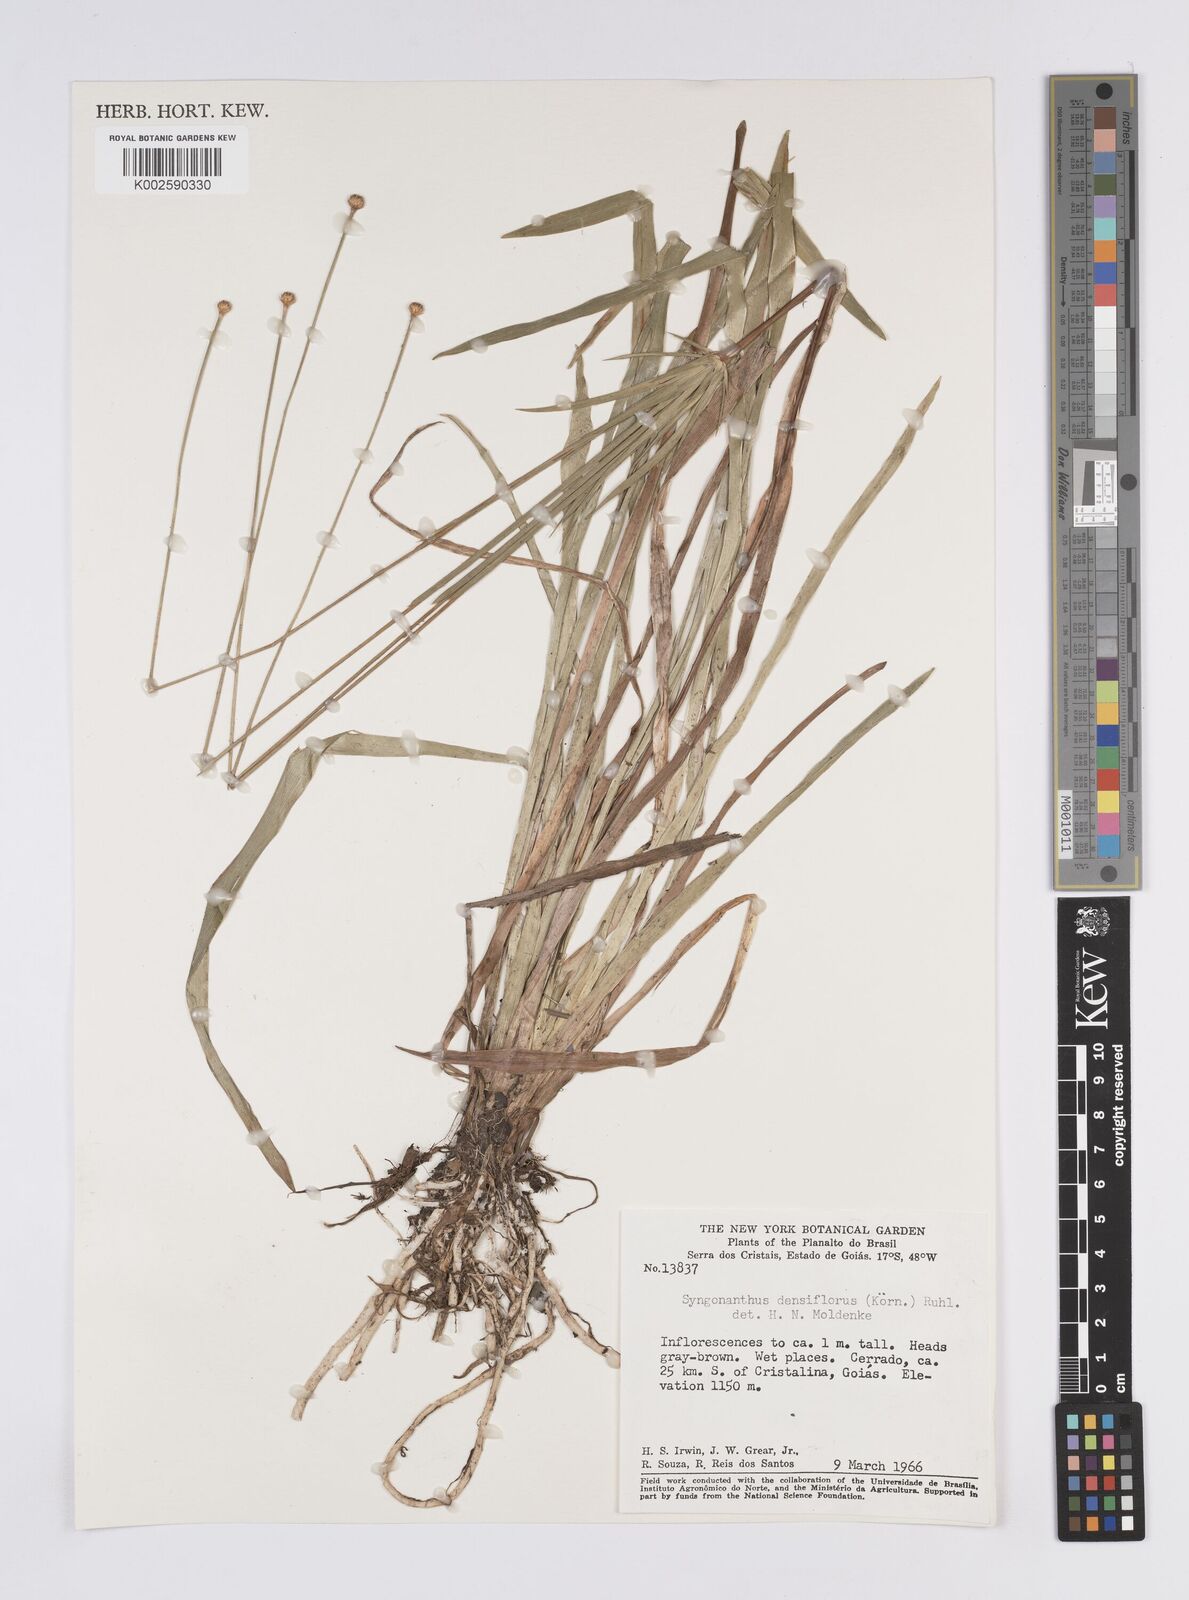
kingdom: Plantae
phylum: Tracheophyta
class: Liliopsida
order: Poales
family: Eriocaulaceae
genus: Syngonanthus
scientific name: Syngonanthus densiflorus
